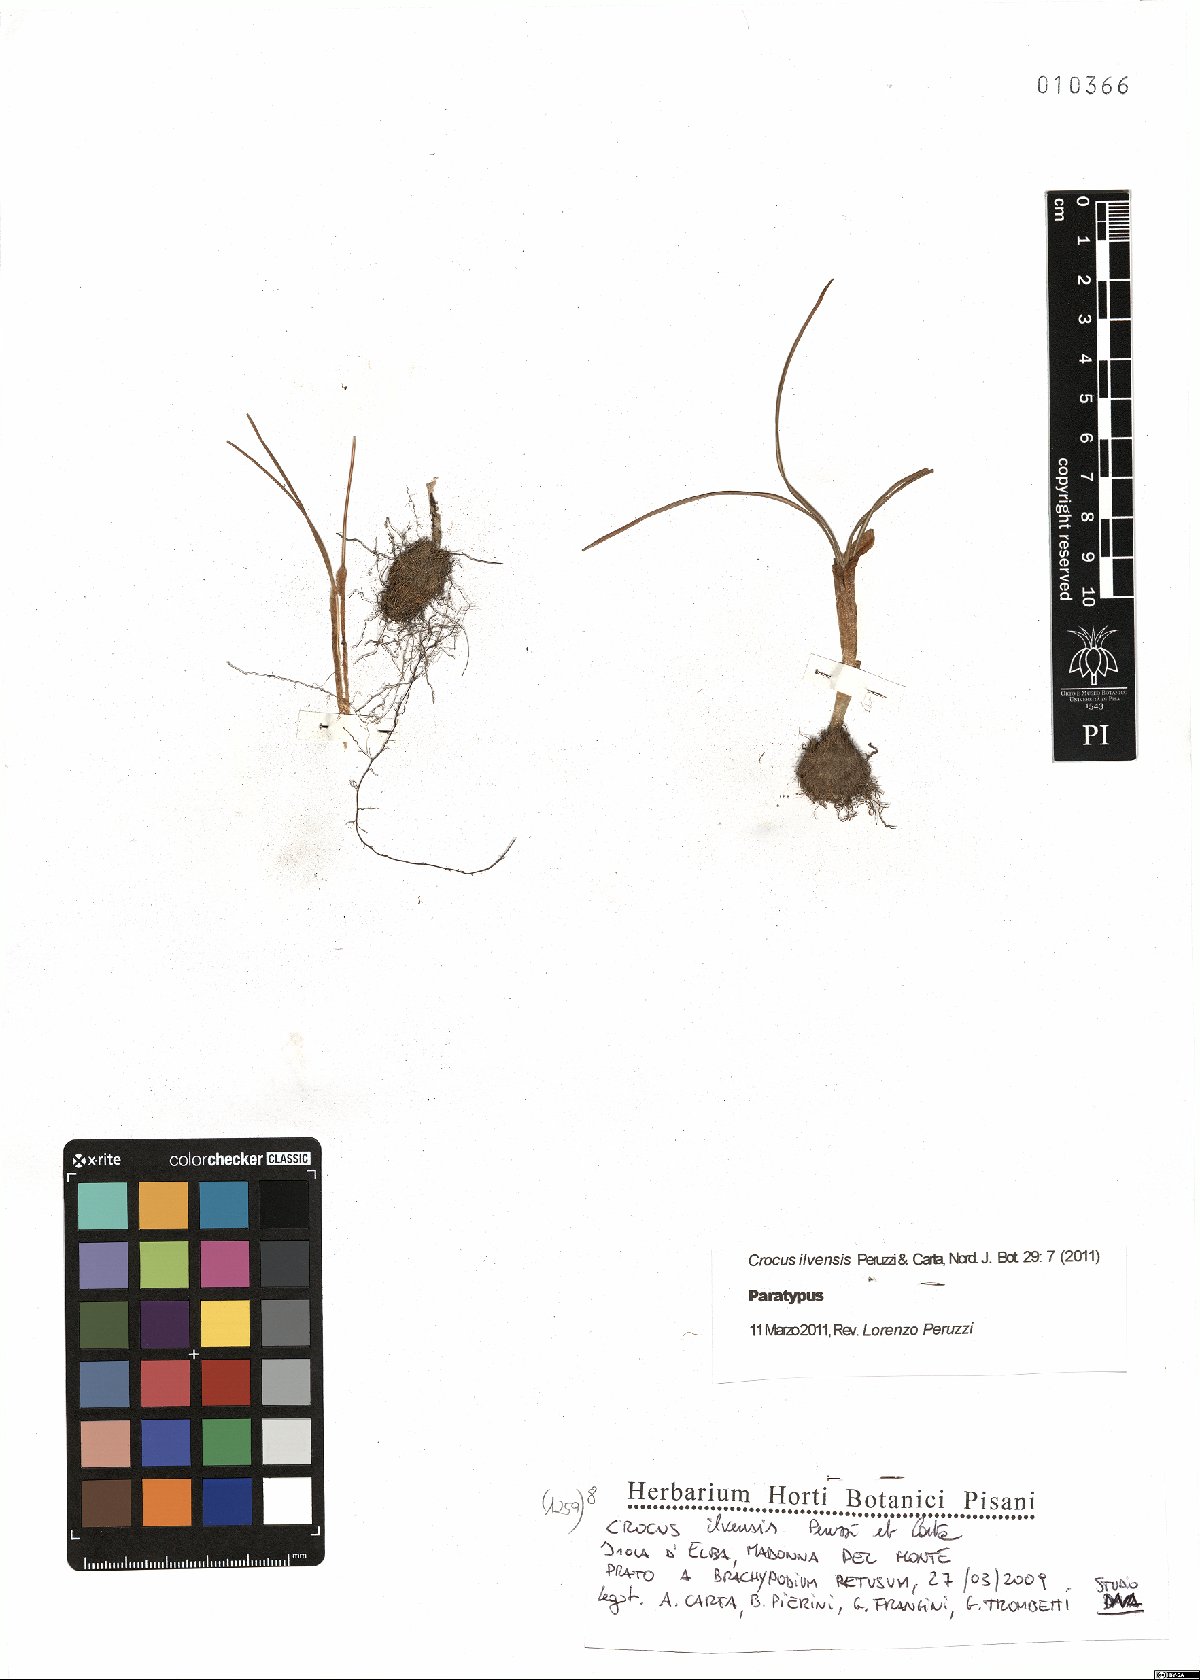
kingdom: Plantae
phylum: Tracheophyta
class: Liliopsida
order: Asparagales
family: Iridaceae
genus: Crocus
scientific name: Crocus ilvensis
